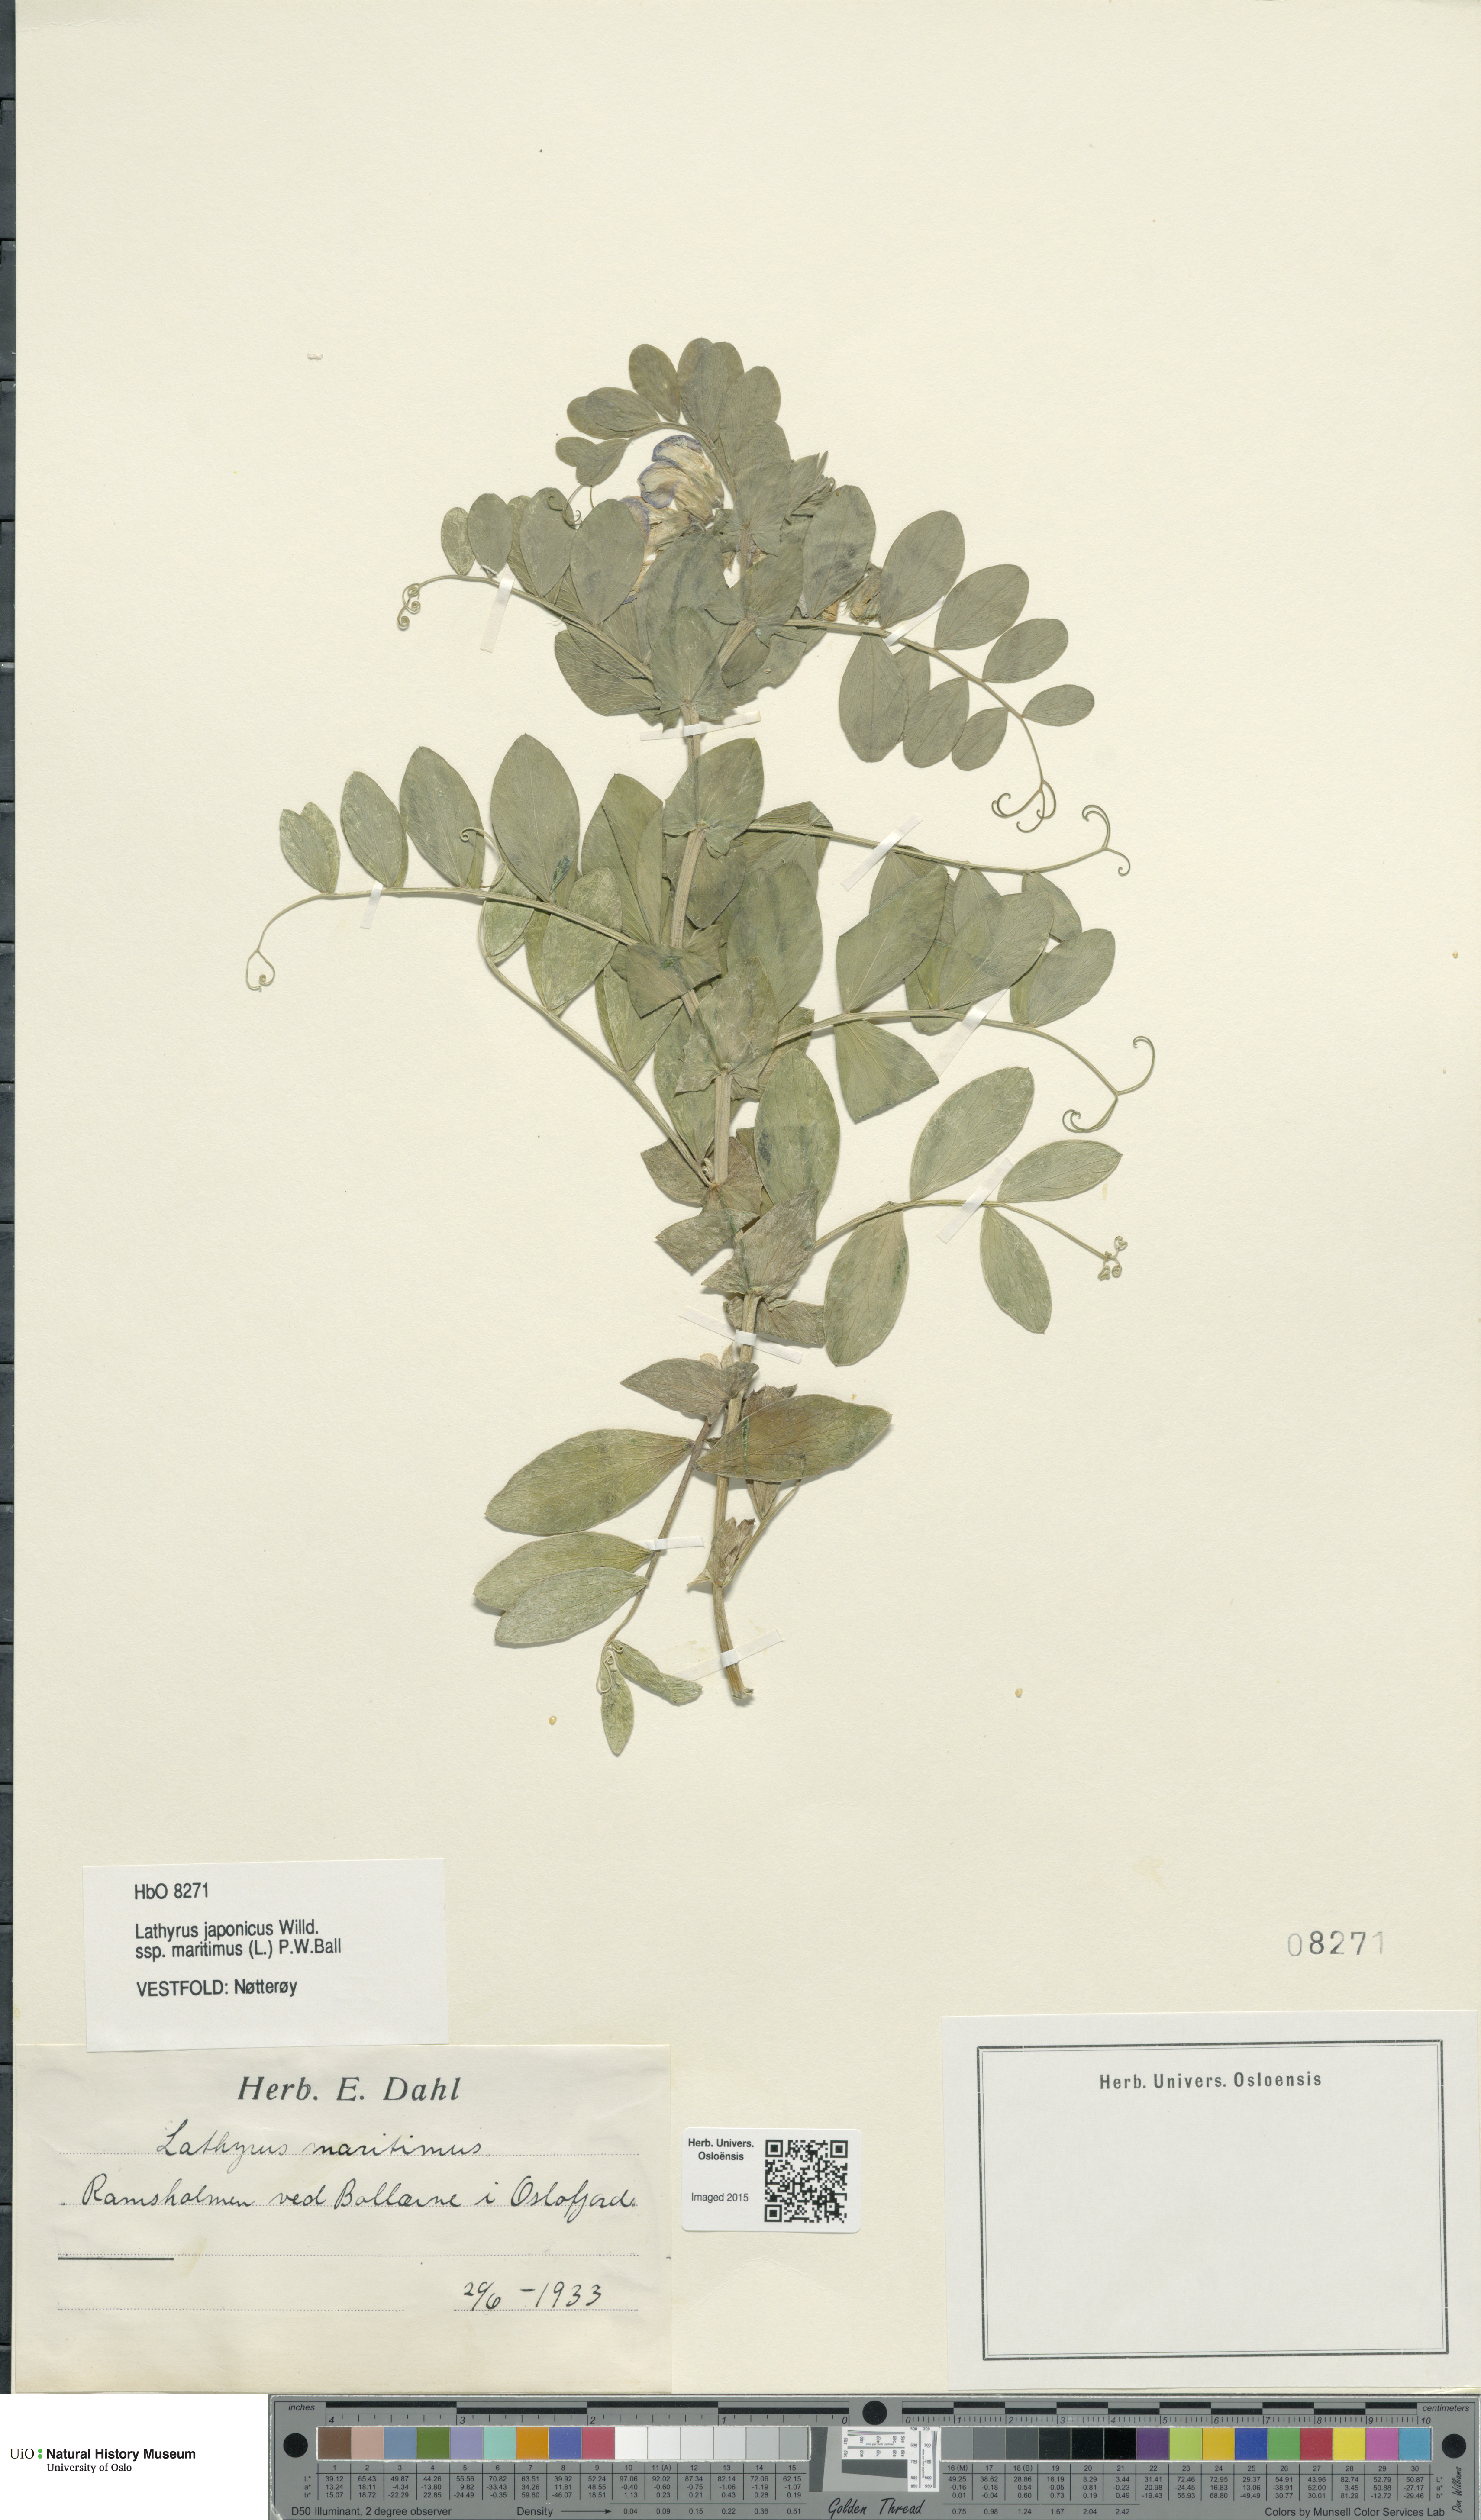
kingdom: Plantae
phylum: Tracheophyta
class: Magnoliopsida
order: Fabales
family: Fabaceae
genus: Lathyrus
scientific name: Lathyrus japonicus
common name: Sea pea
